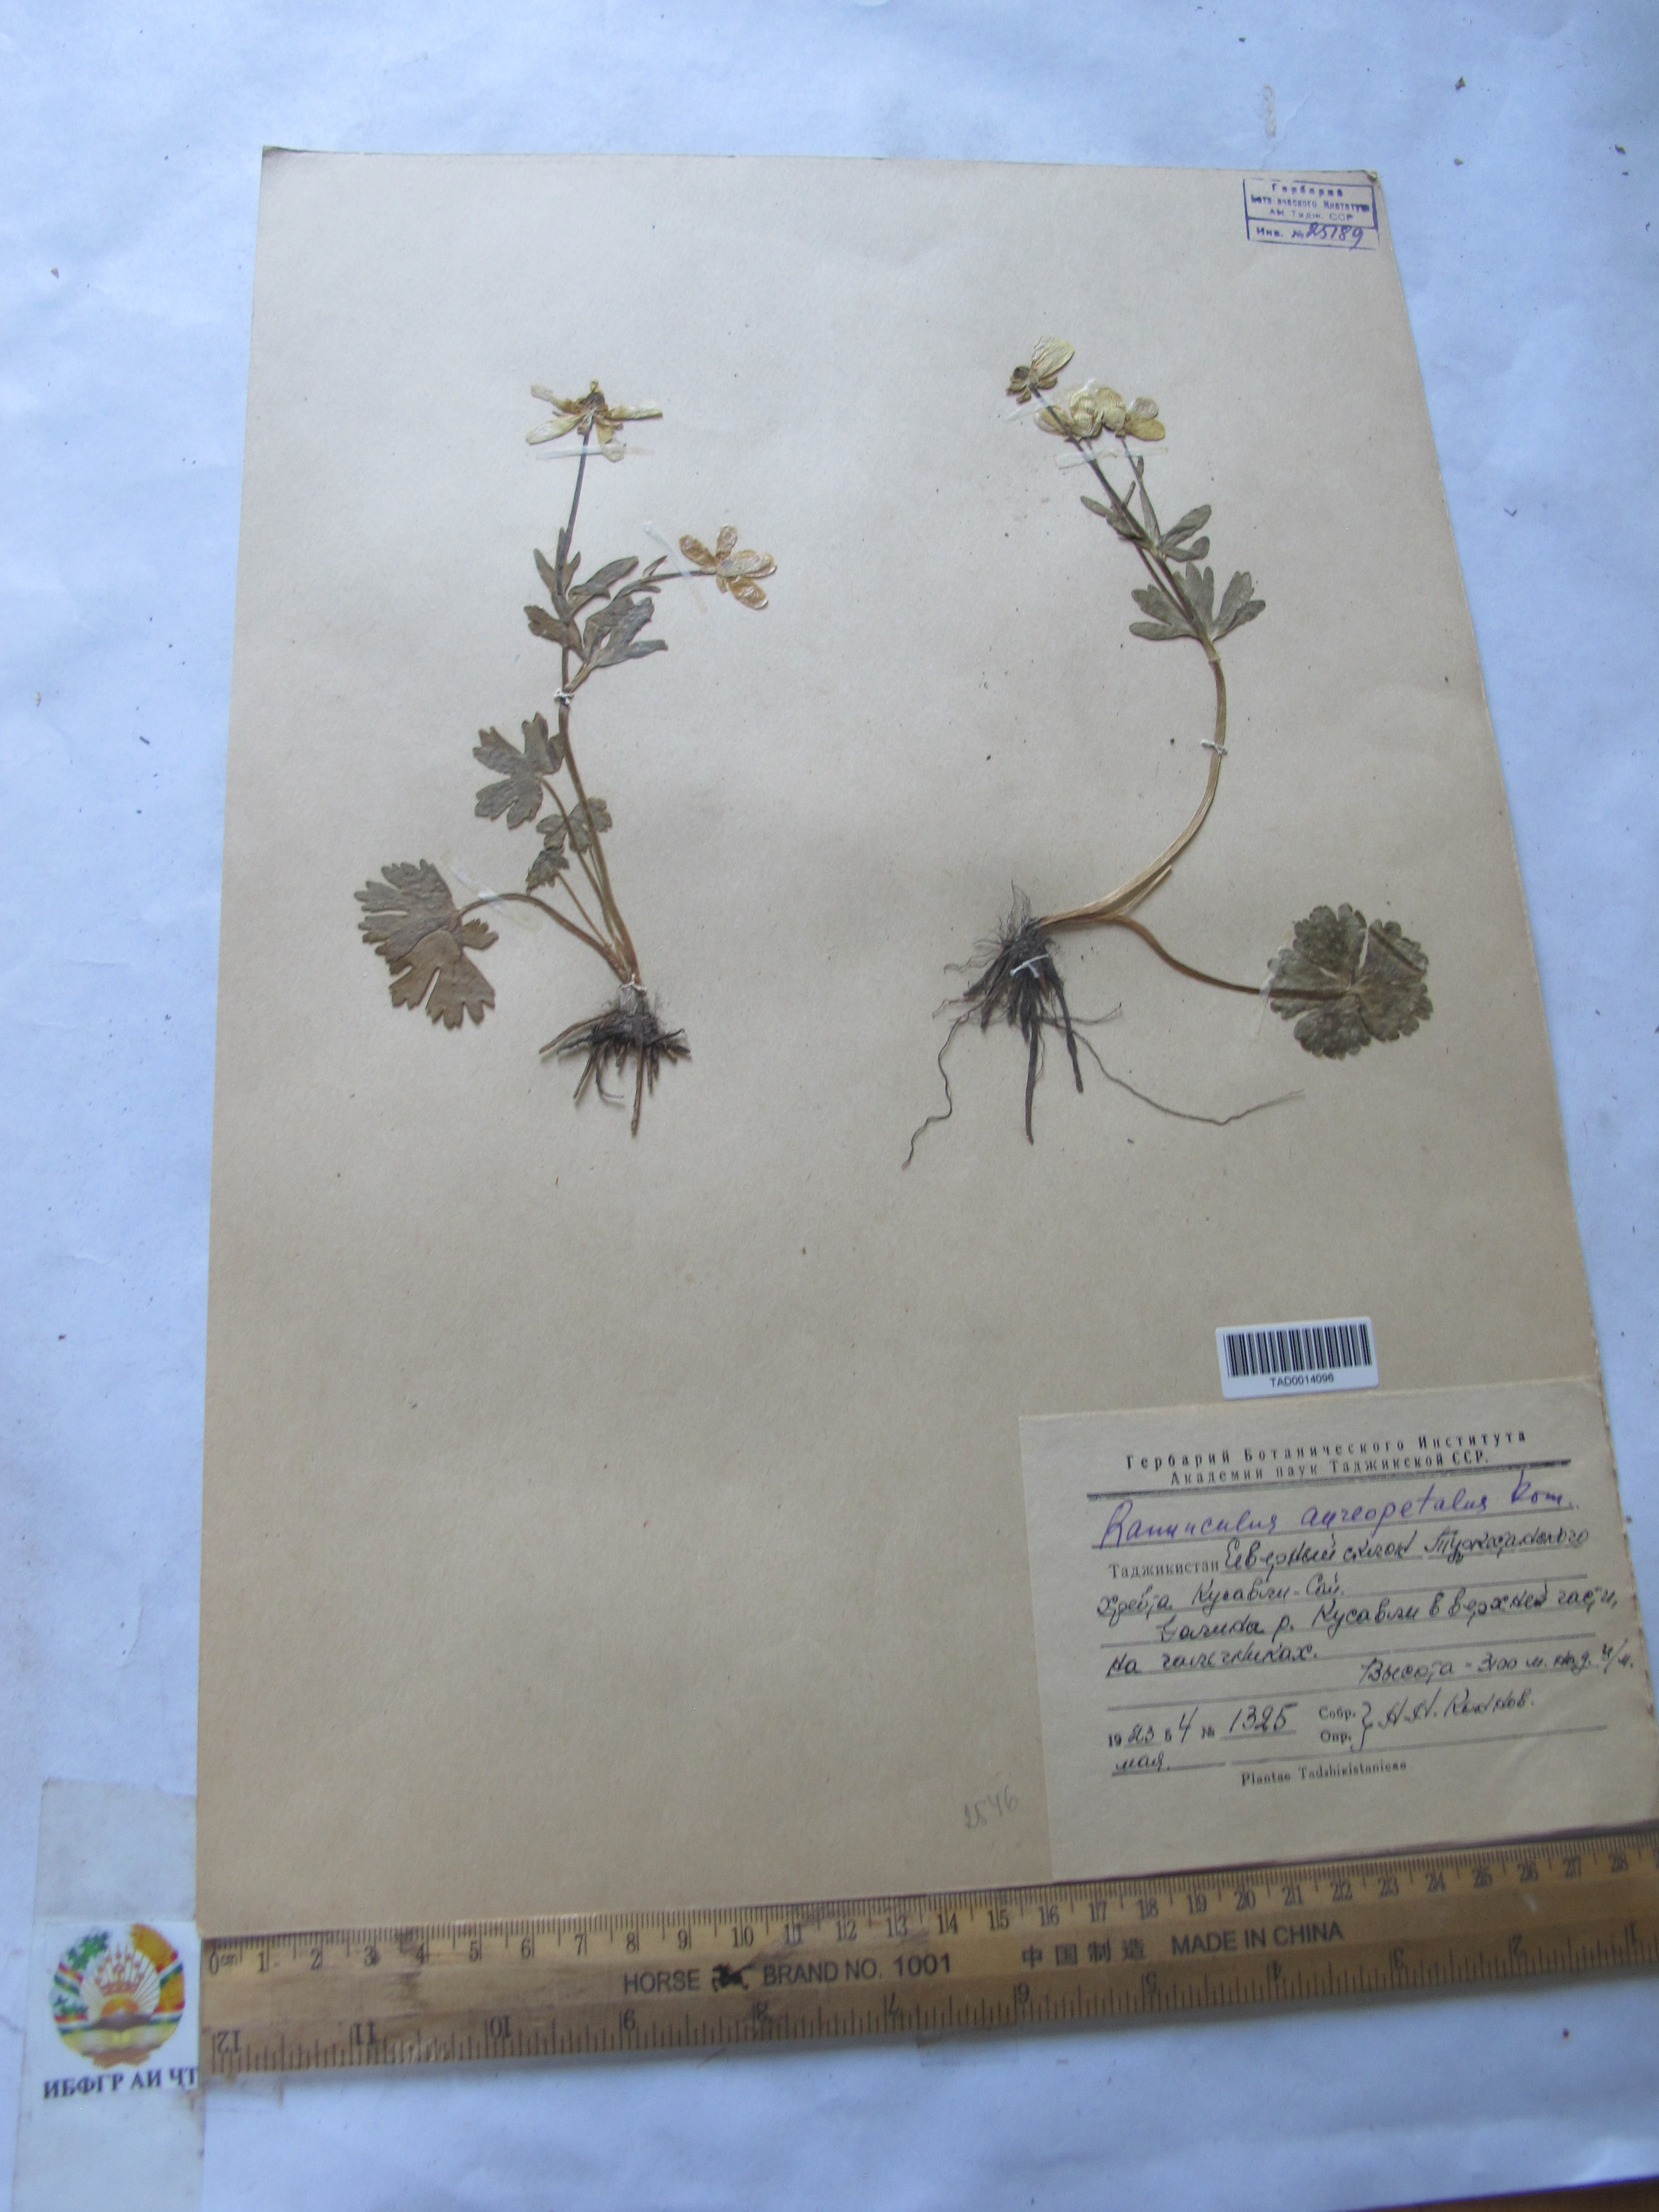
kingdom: Plantae
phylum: Tracheophyta
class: Magnoliopsida
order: Ranunculales
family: Ranunculaceae
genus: Ranunculus
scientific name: Ranunculus aureopetalus
